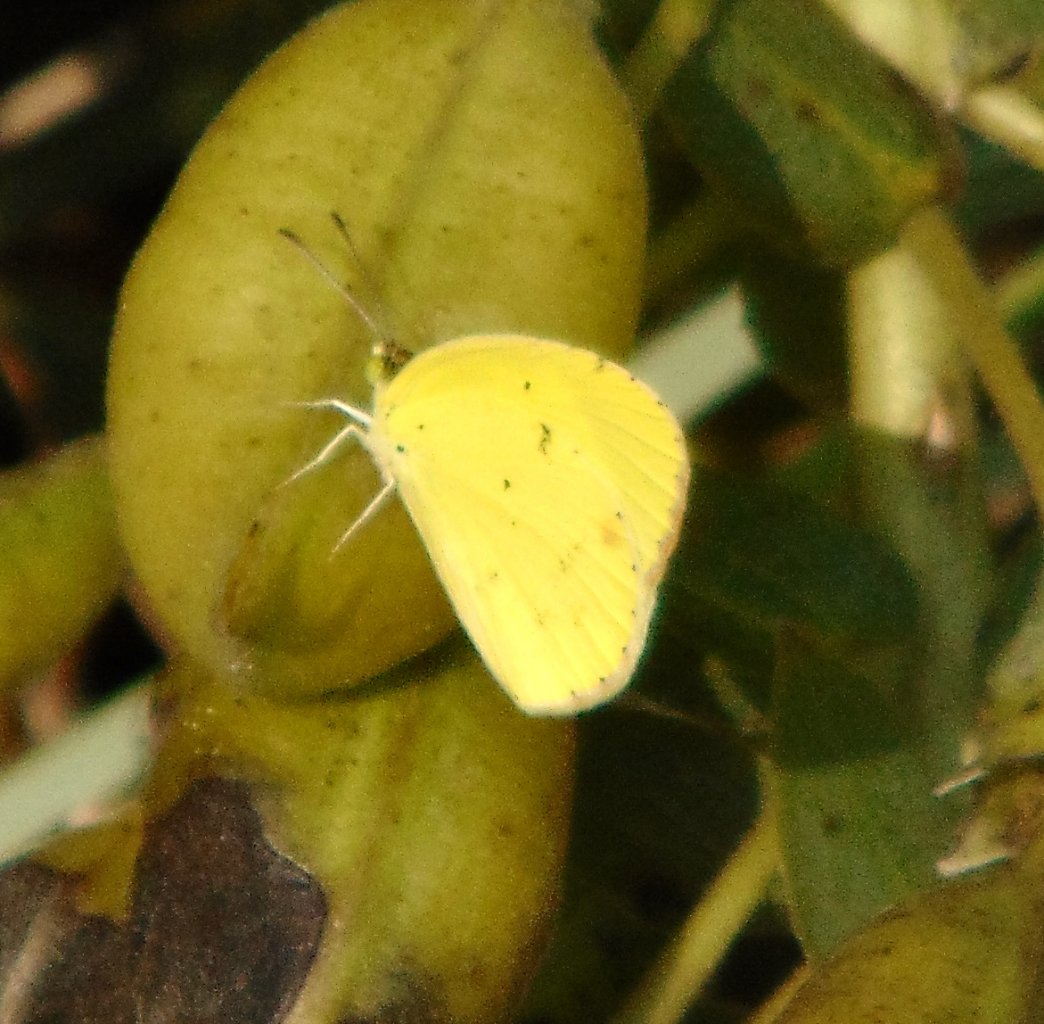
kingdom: Animalia
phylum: Arthropoda
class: Insecta
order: Lepidoptera
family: Pieridae
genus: Pyrisitia
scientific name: Pyrisitia lisa
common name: Little Yellow
